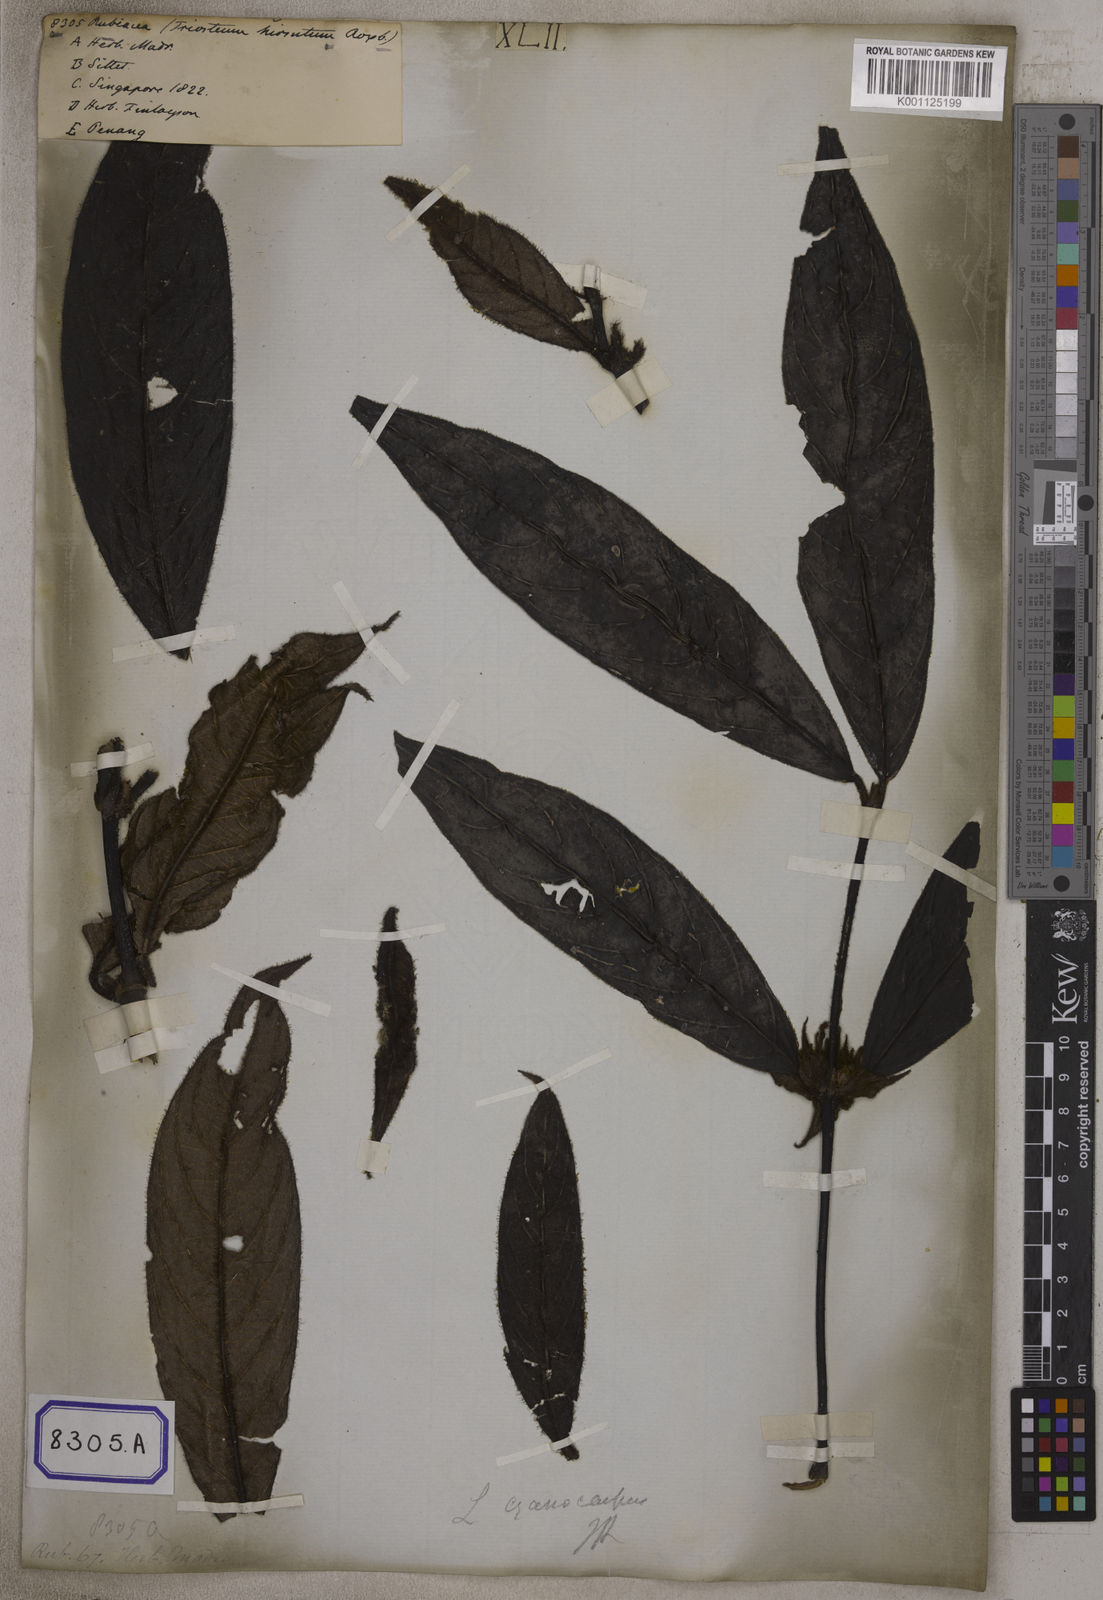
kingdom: Plantae
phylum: Tracheophyta
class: Magnoliopsida
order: Gentianales
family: Rubiaceae
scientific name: Rubiaceae
